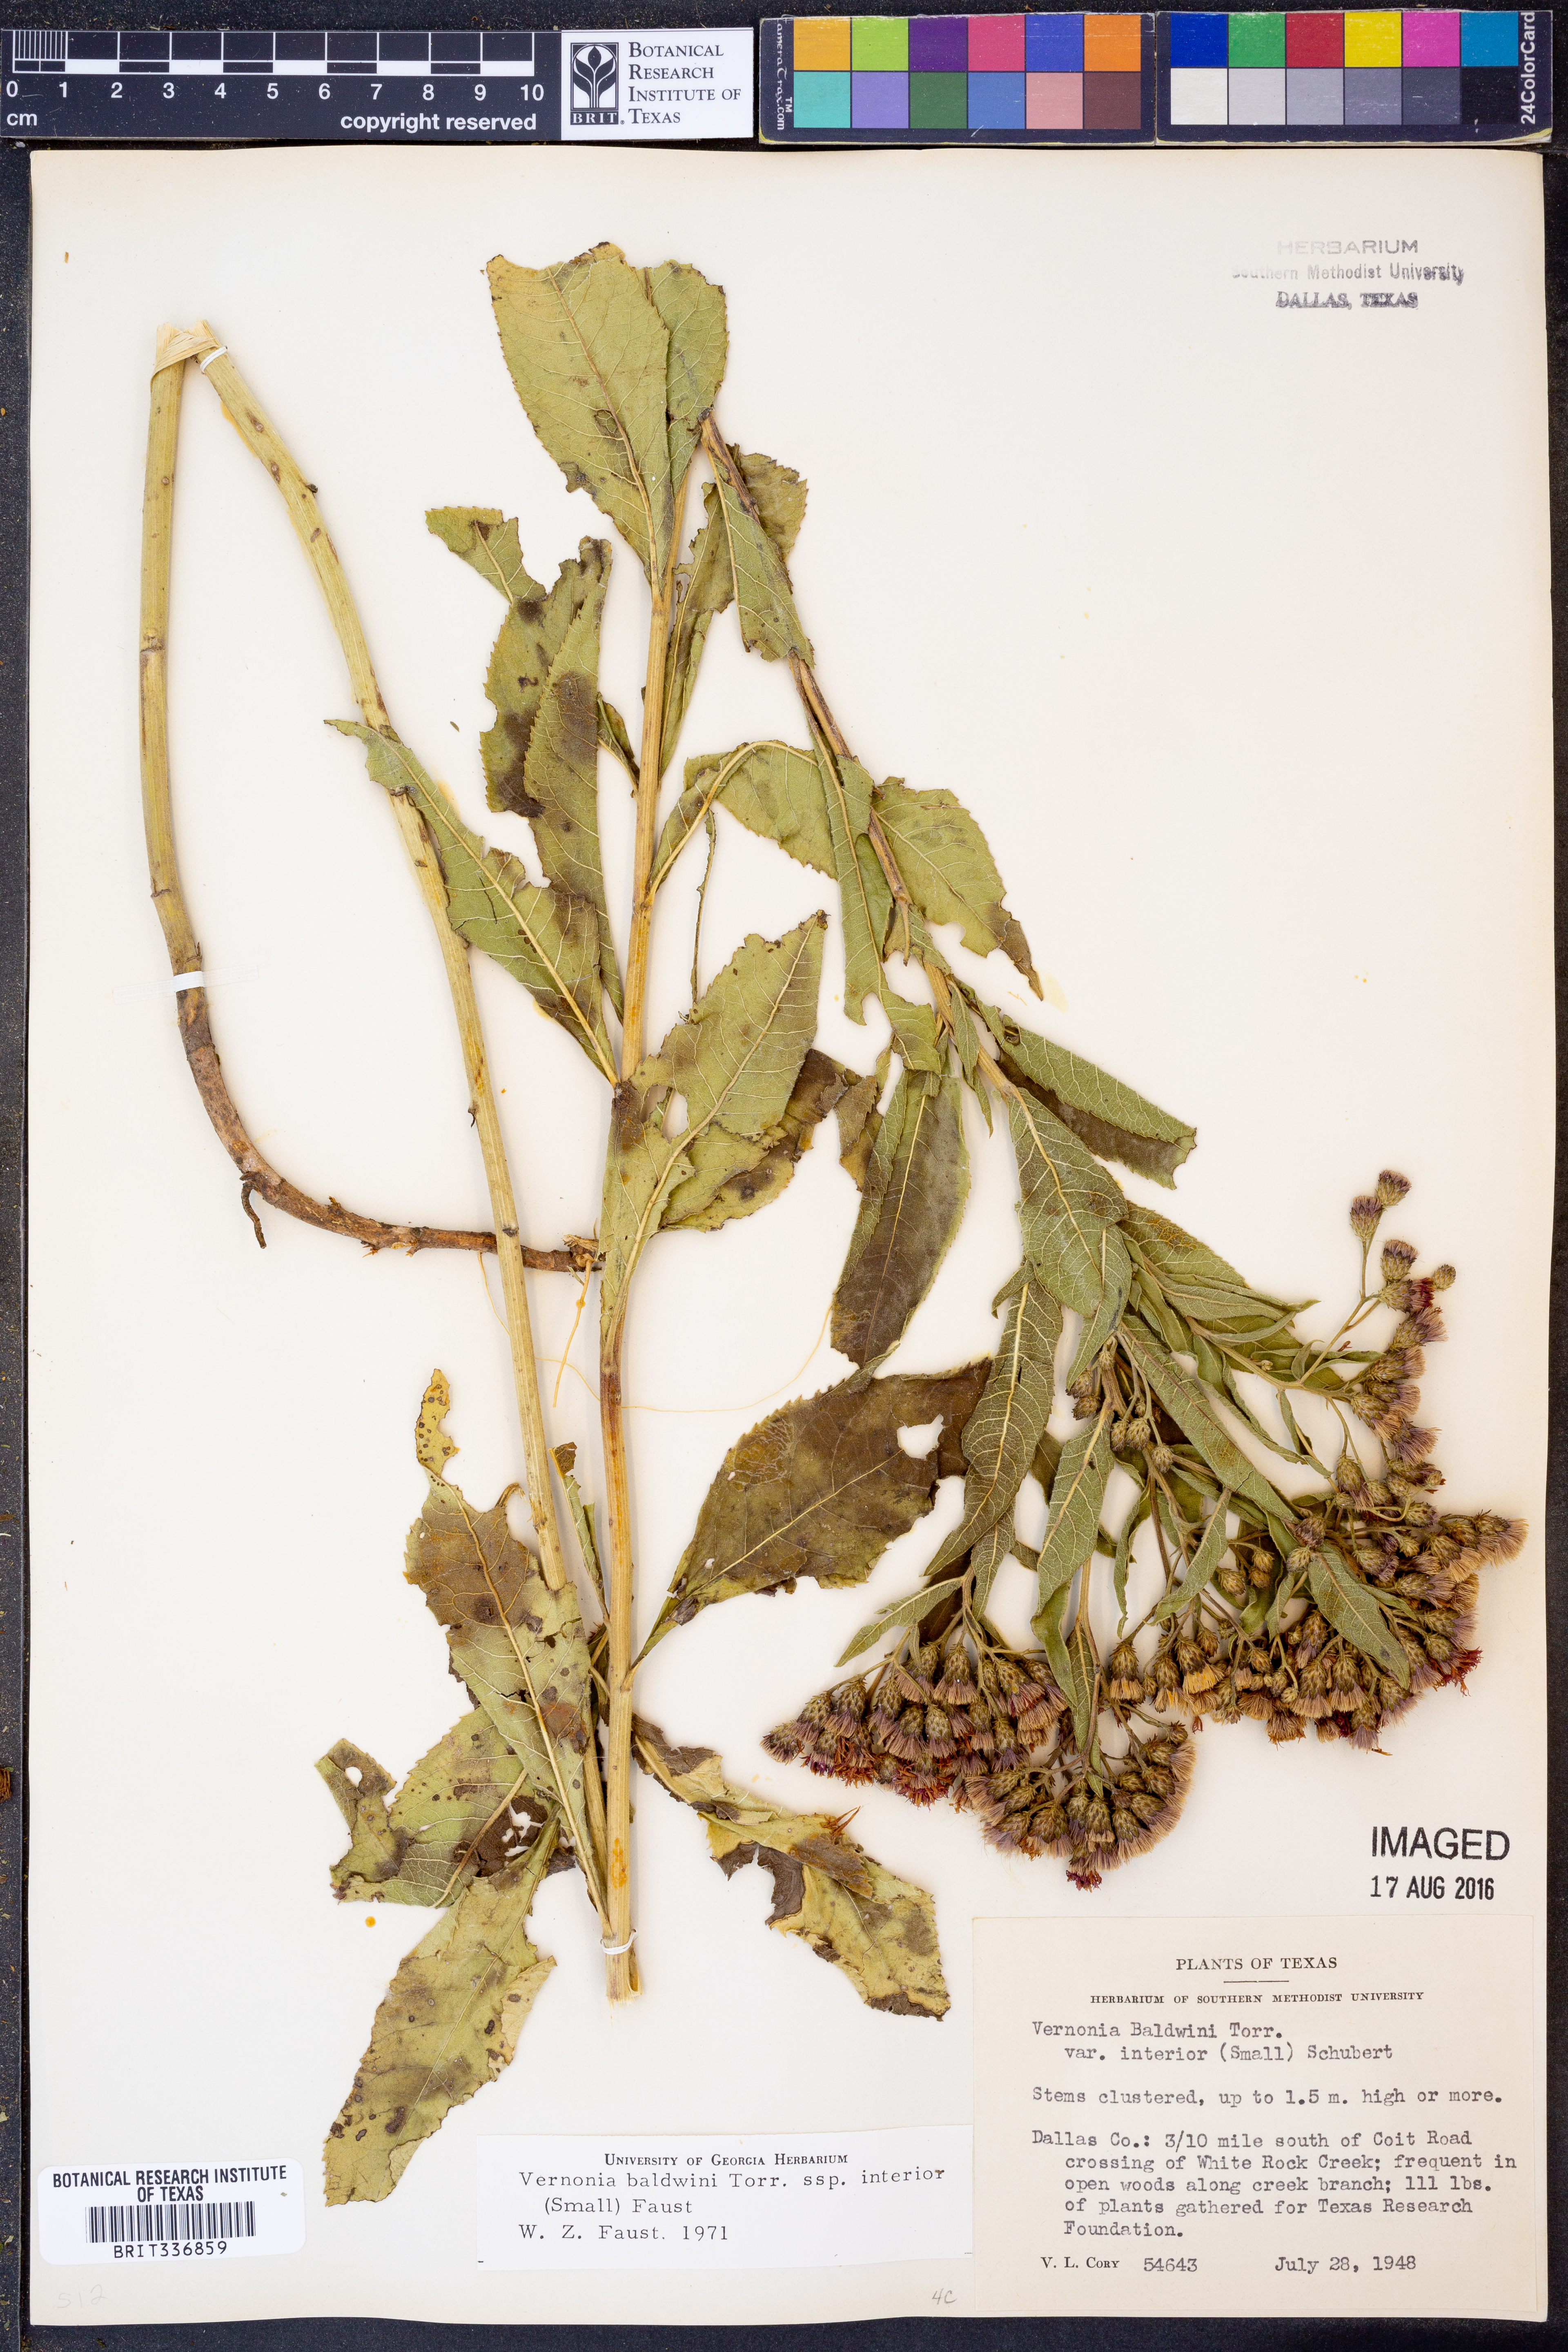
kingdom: Plantae
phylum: Tracheophyta
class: Magnoliopsida
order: Asterales
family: Asteraceae
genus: Vernonia
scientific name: Vernonia baldwinii
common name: Western ironweed
